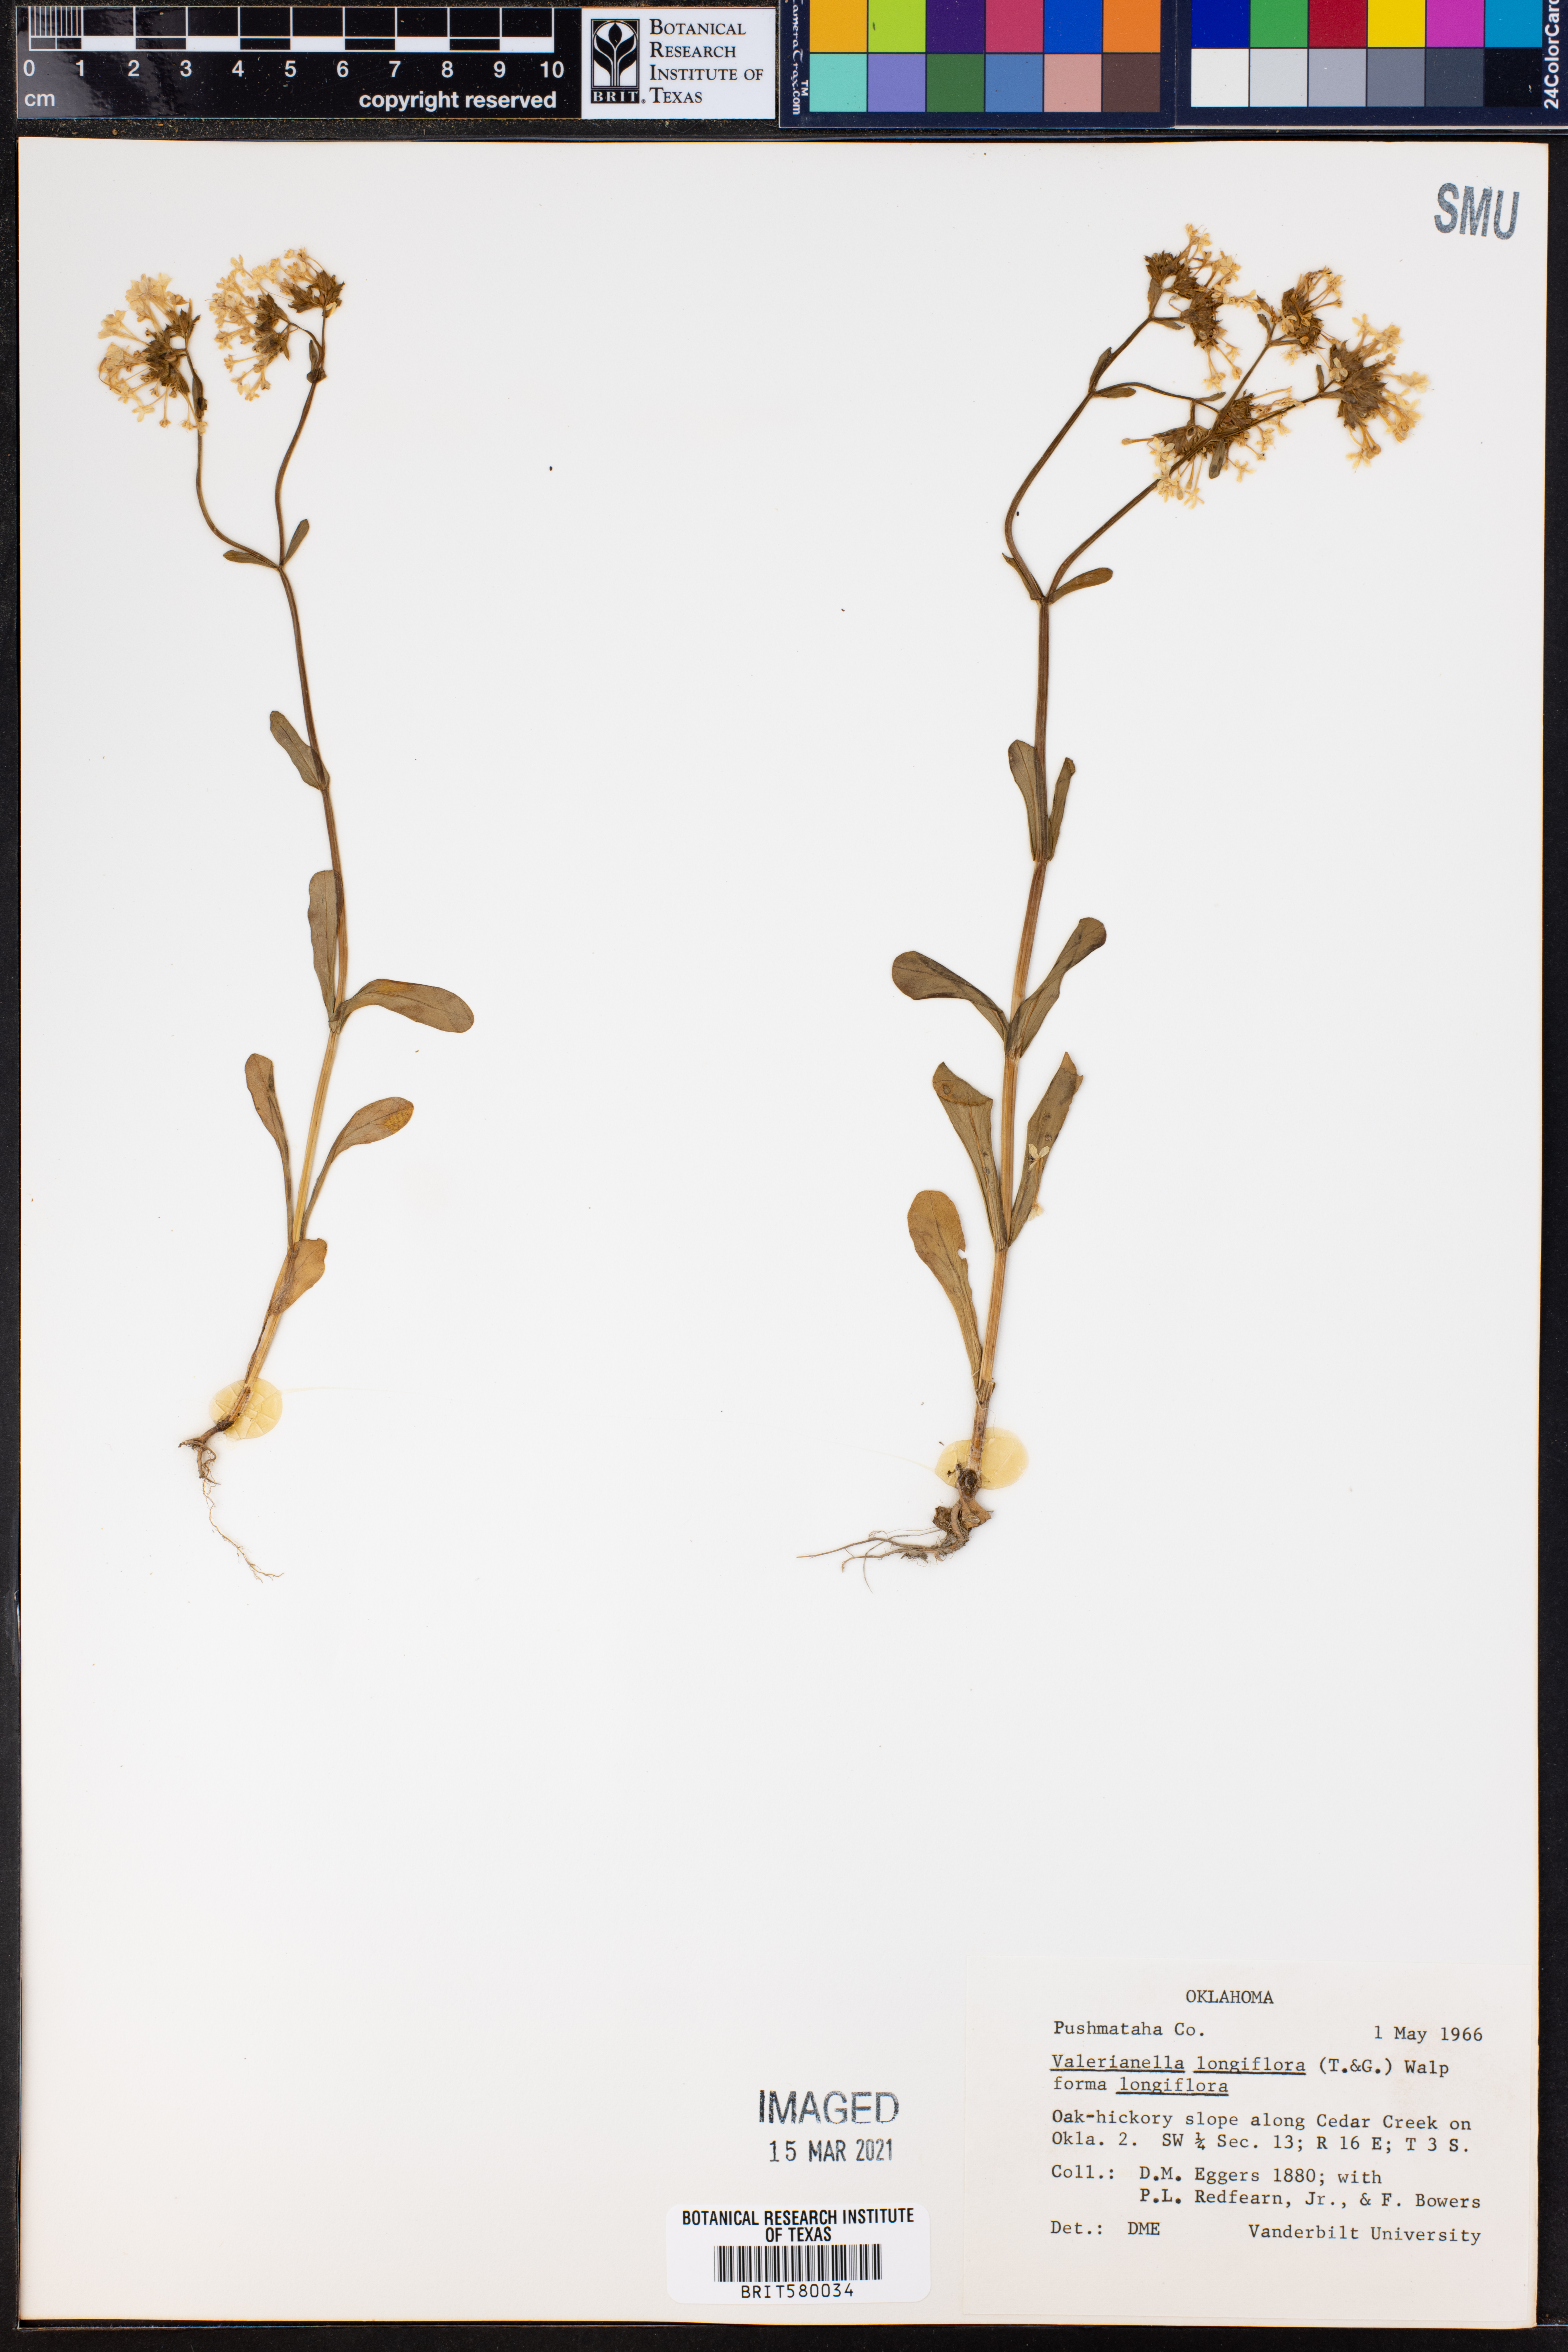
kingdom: Plantae
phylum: Tracheophyta
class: Magnoliopsida
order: Dipsacales
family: Caprifoliaceae
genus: Plectritis
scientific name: Plectritis longiflora
